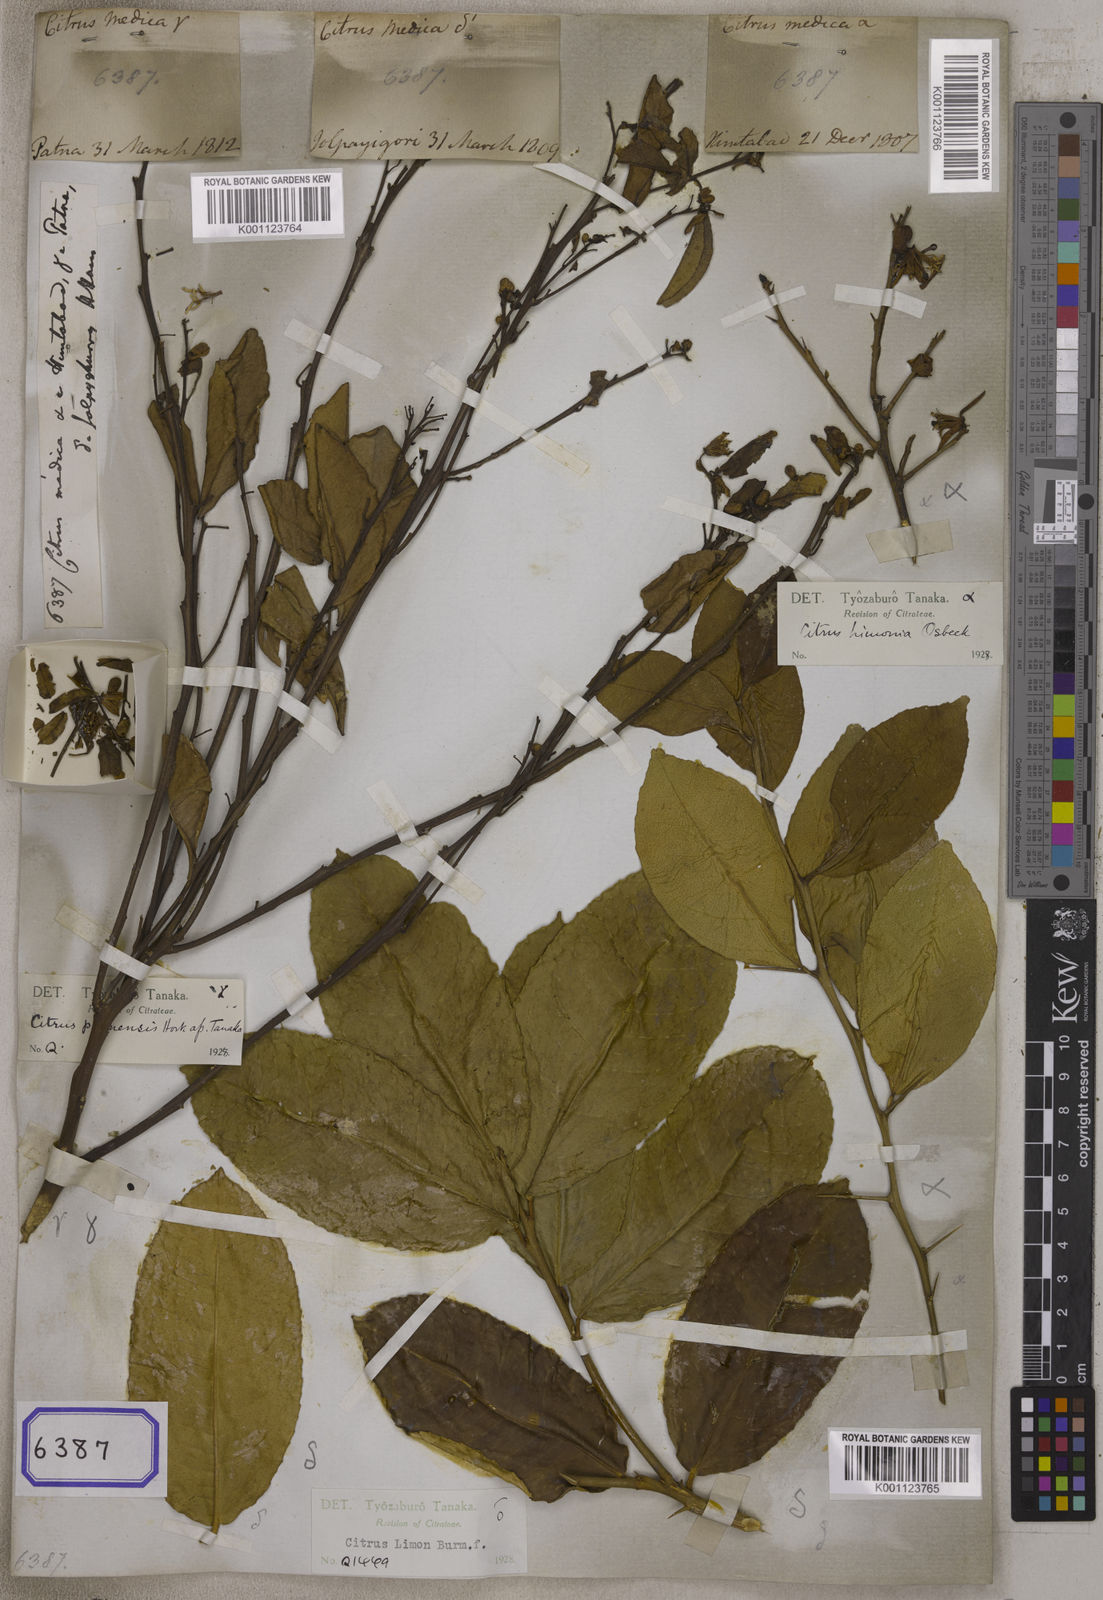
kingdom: Plantae
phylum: Tracheophyta
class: Magnoliopsida
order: Sapindales
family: Rutaceae
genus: Citrus
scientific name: Citrus medica
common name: Citron
